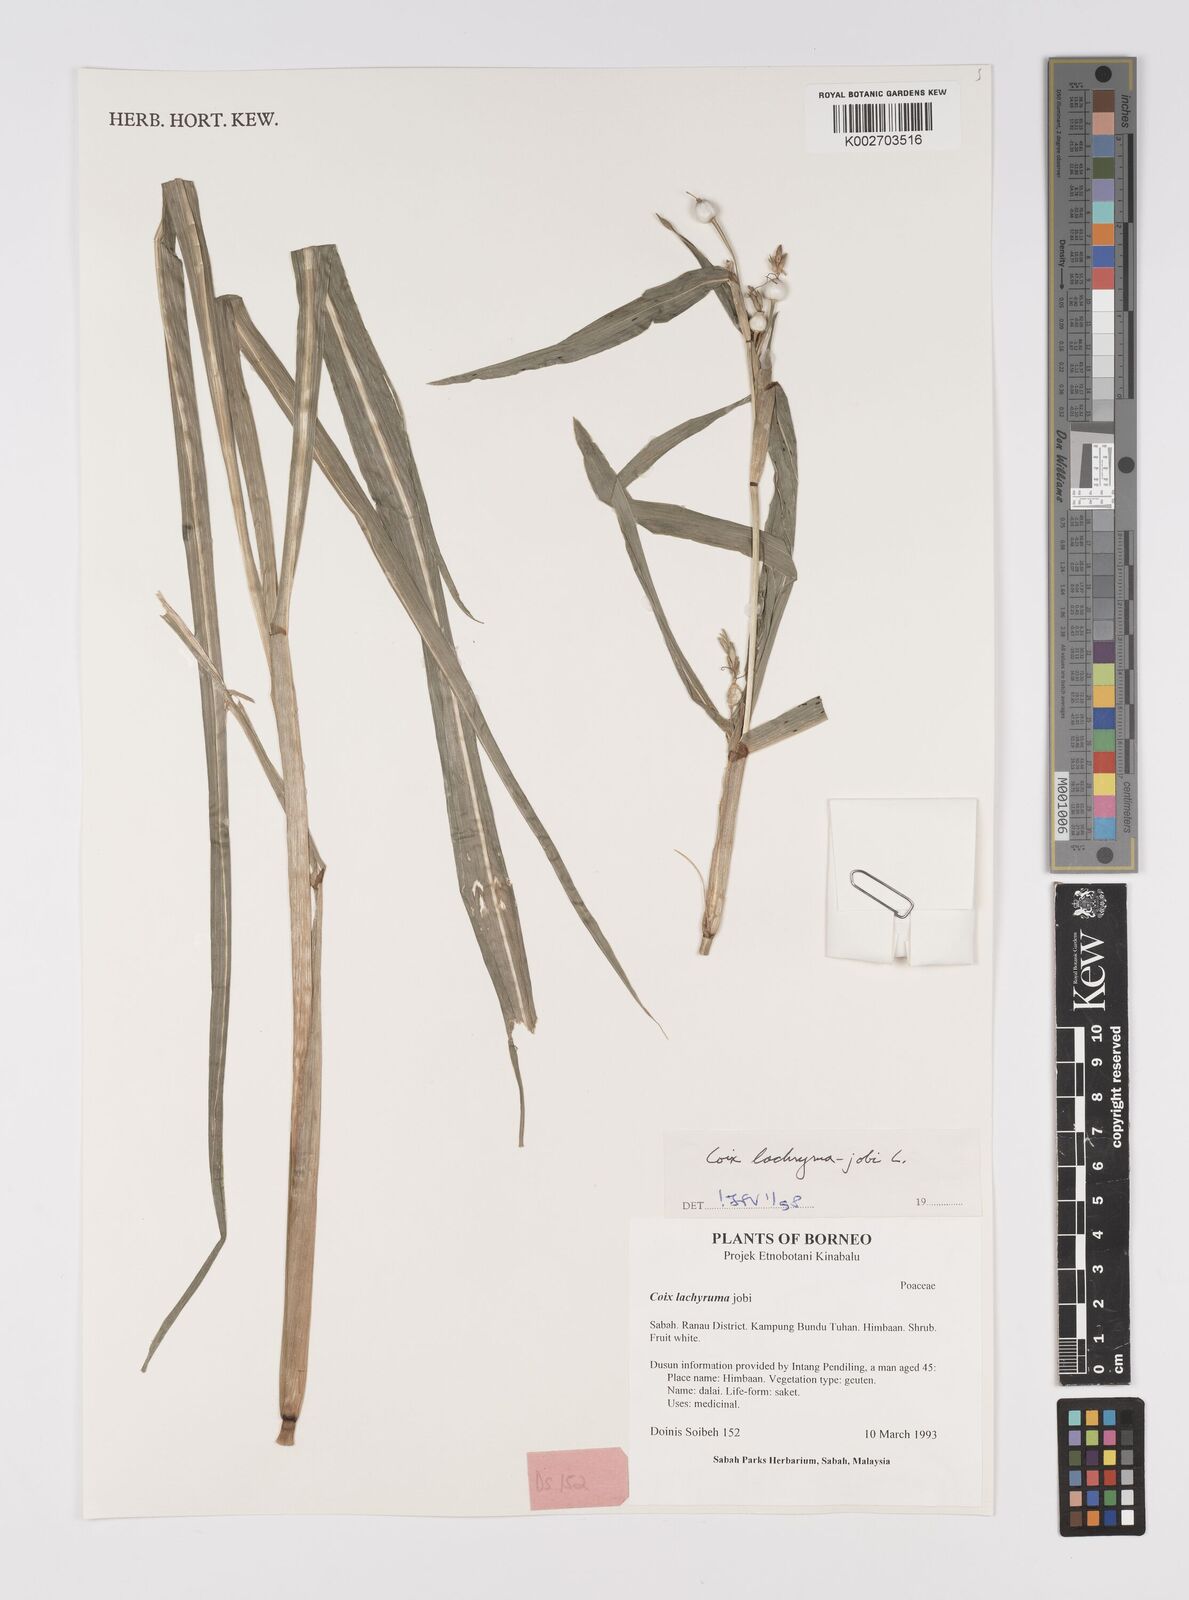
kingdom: Plantae
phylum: Tracheophyta
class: Liliopsida
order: Poales
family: Poaceae
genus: Coix
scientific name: Coix lacryma-jobi
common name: Job's tears
